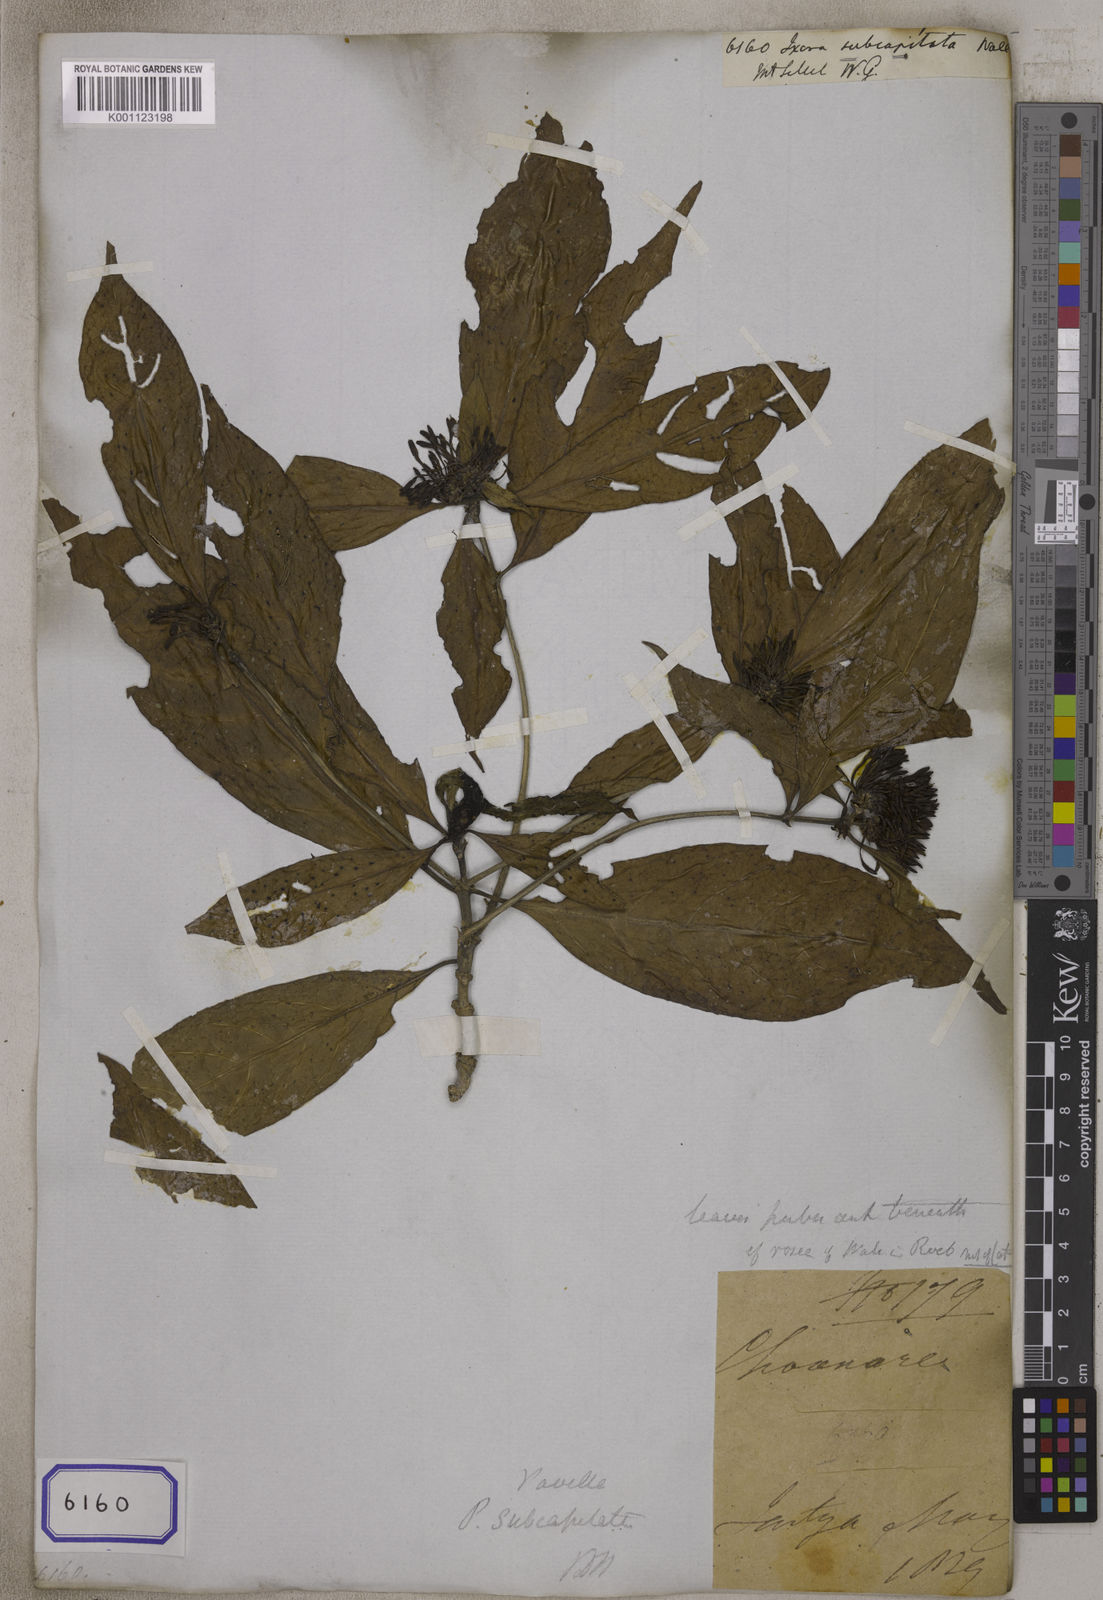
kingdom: Plantae
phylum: Tracheophyta
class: Magnoliopsida
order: Gentianales
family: Rubiaceae
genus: Pavetta
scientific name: Pavetta subcapitata
